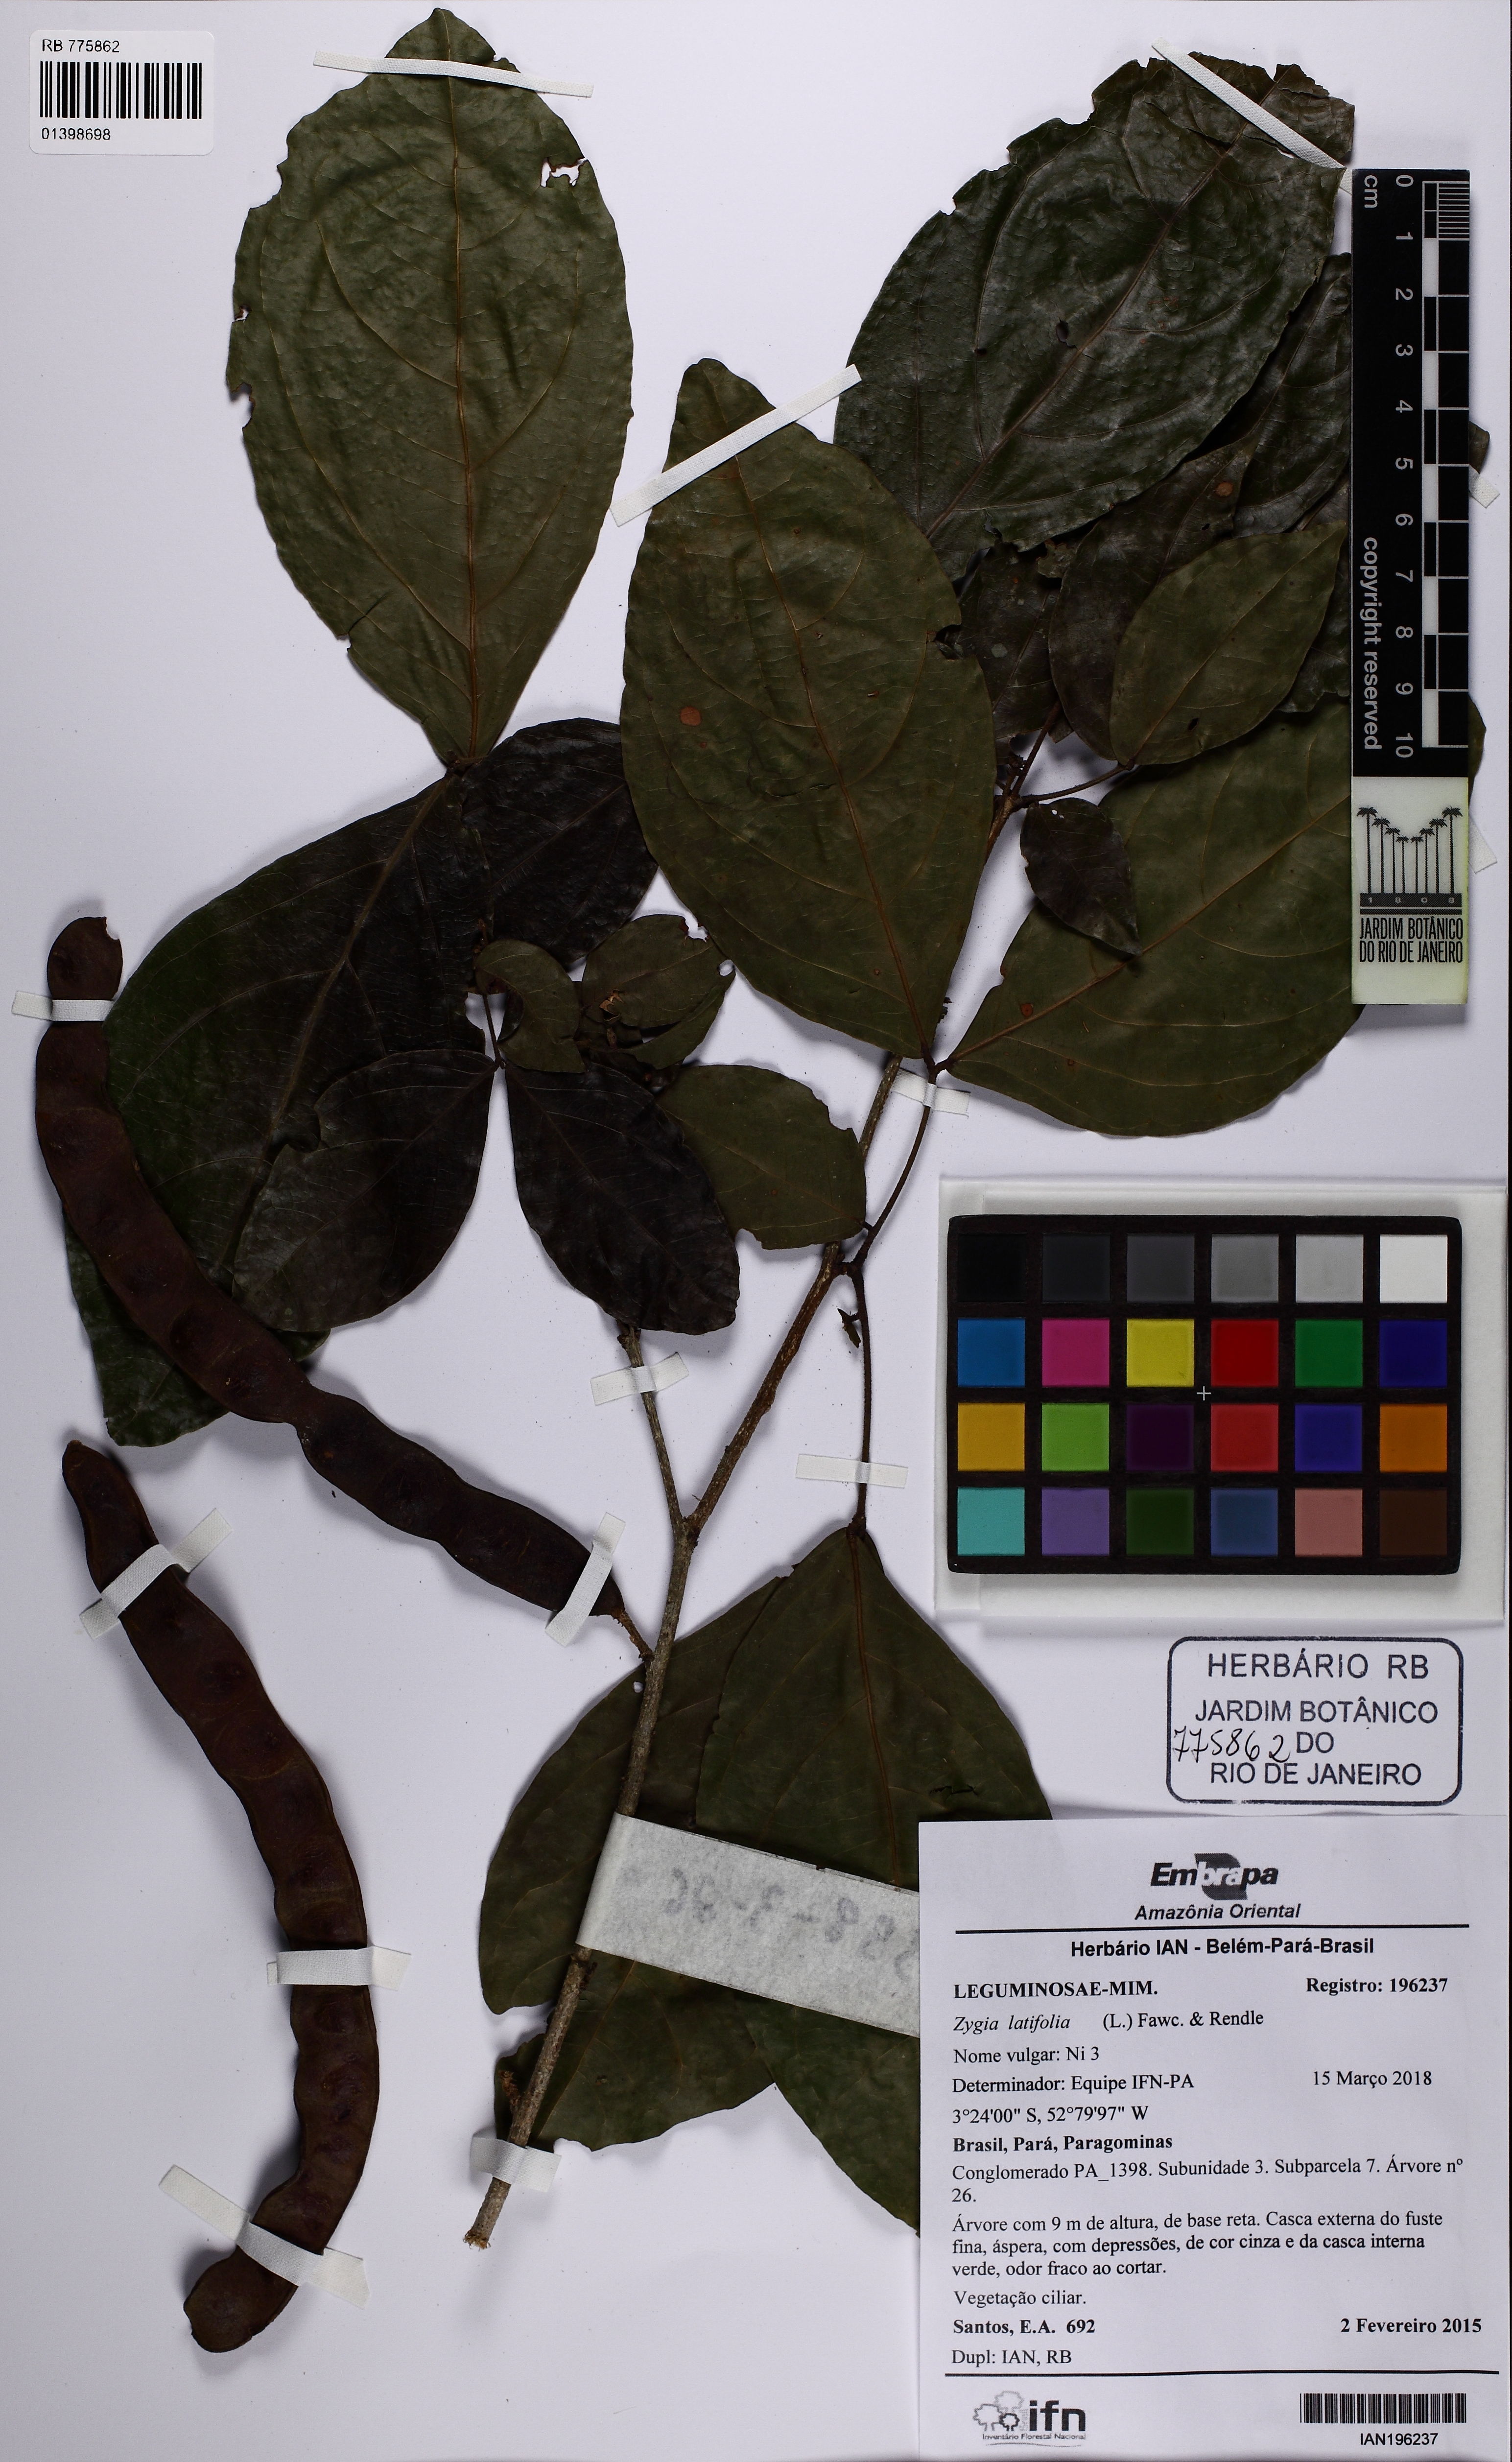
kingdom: Plantae
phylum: Tracheophyta
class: Magnoliopsida
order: Fabales
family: Fabaceae
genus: Zygia
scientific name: Zygia latifolia
